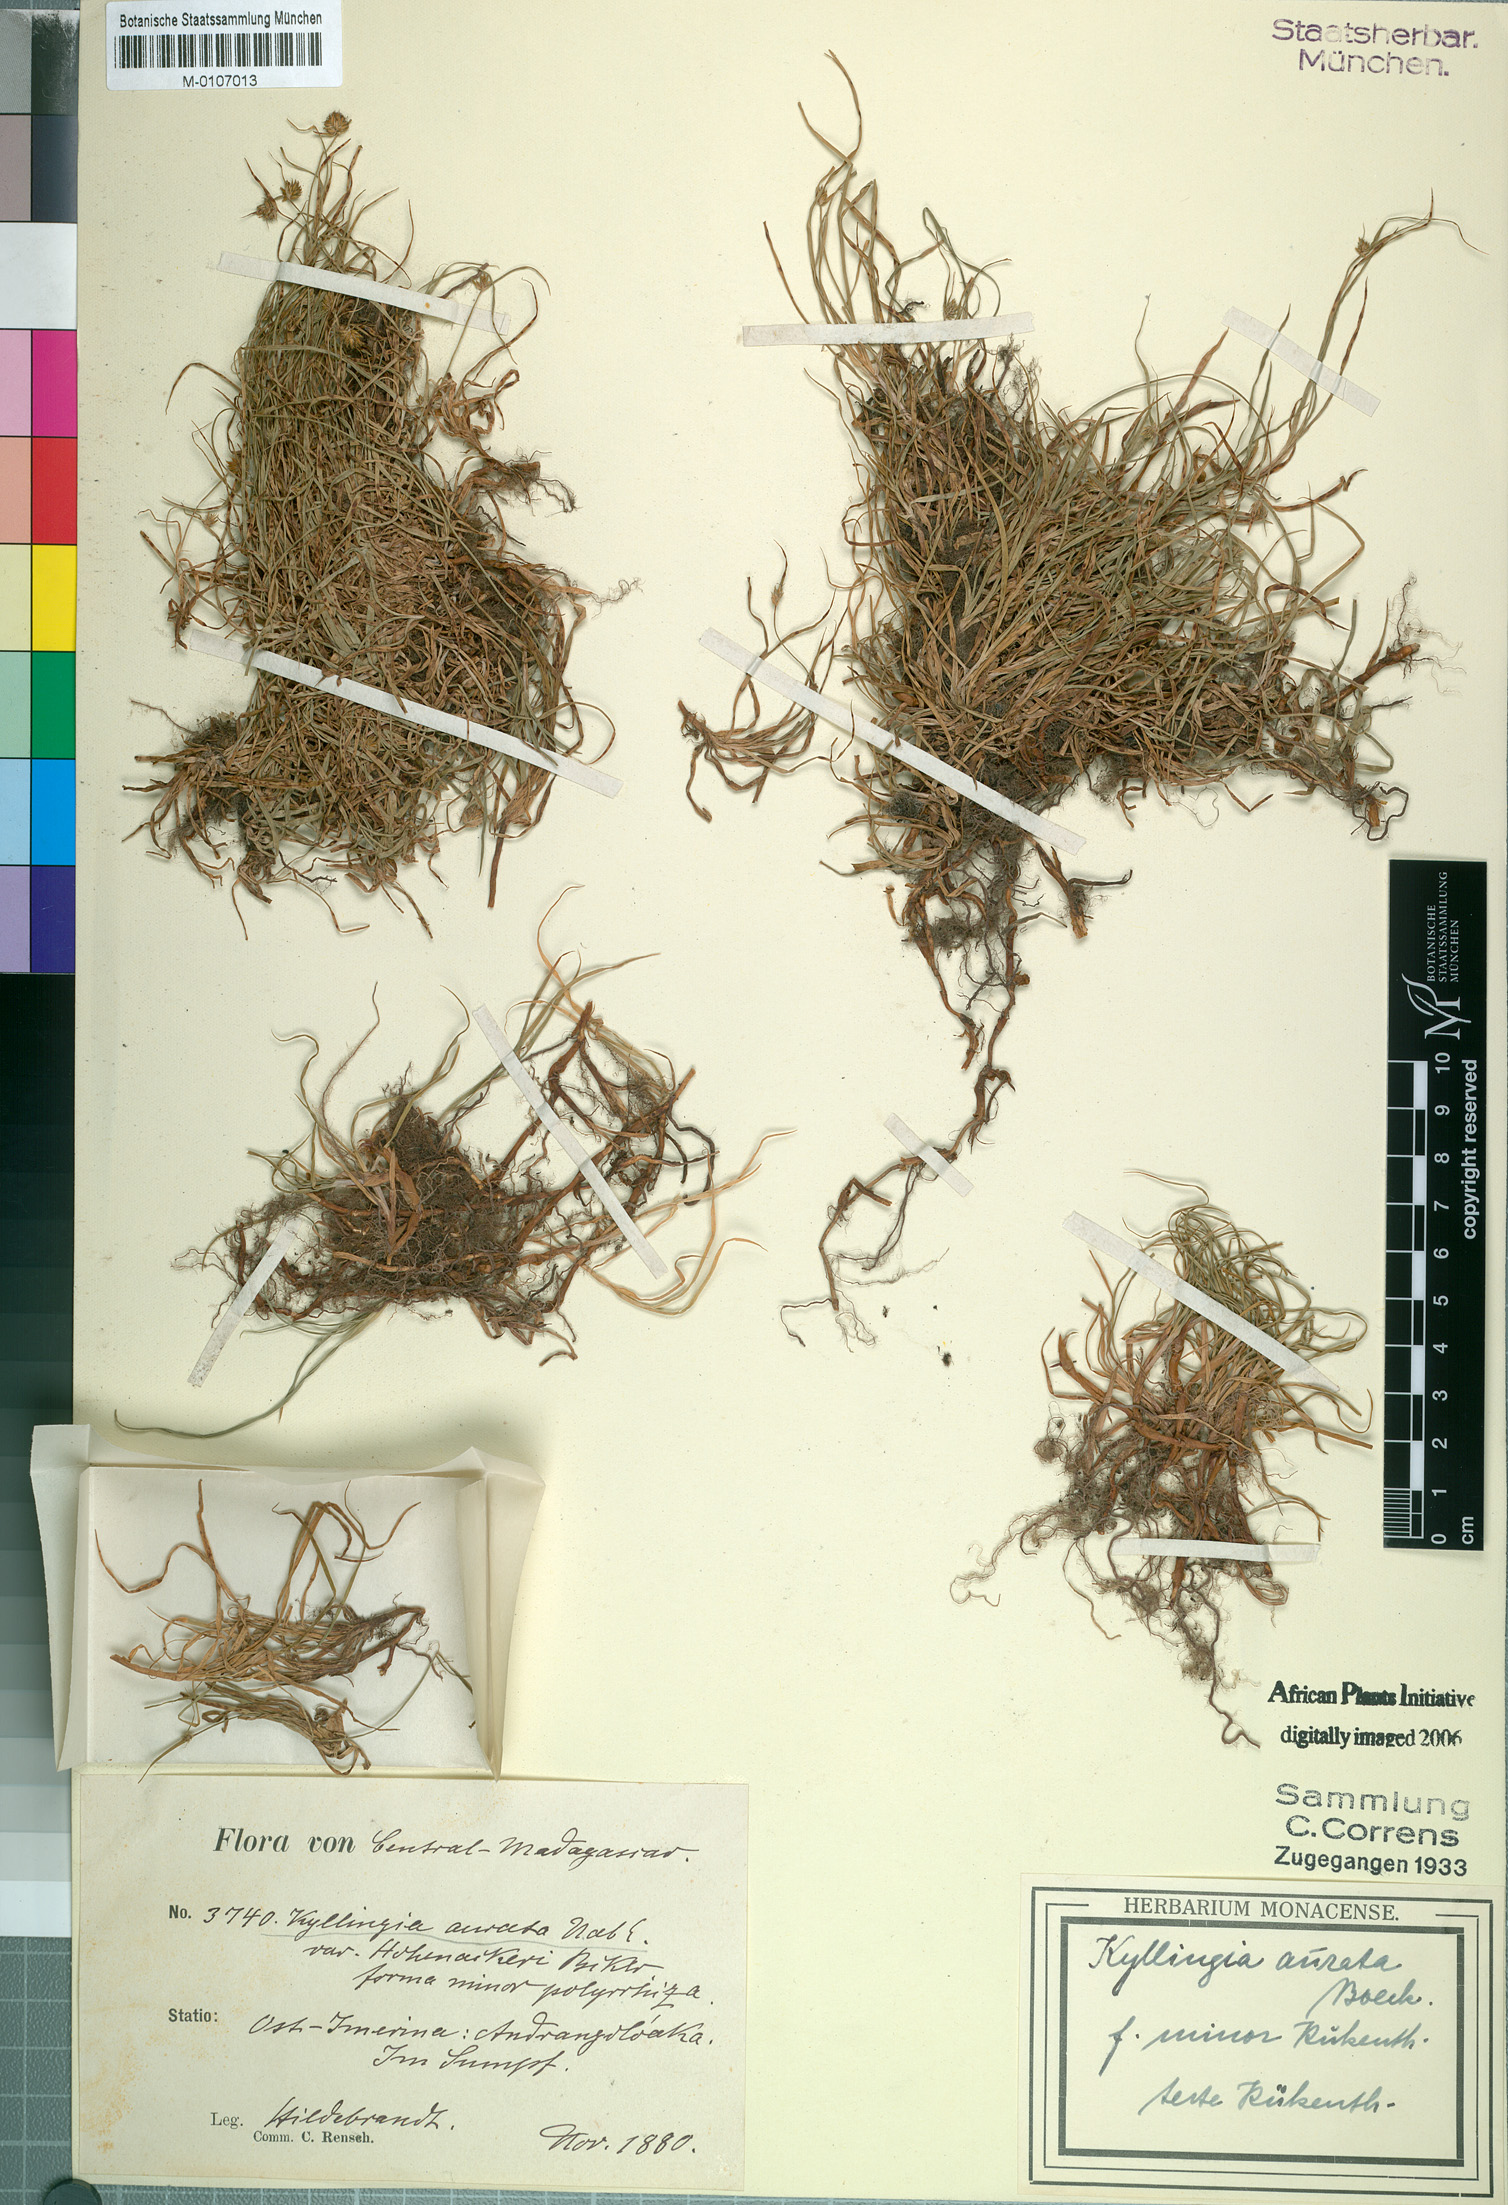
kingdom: Plantae
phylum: Tracheophyta
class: Liliopsida
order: Poales
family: Cyperaceae
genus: Cyperus
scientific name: Cyperus erectus
